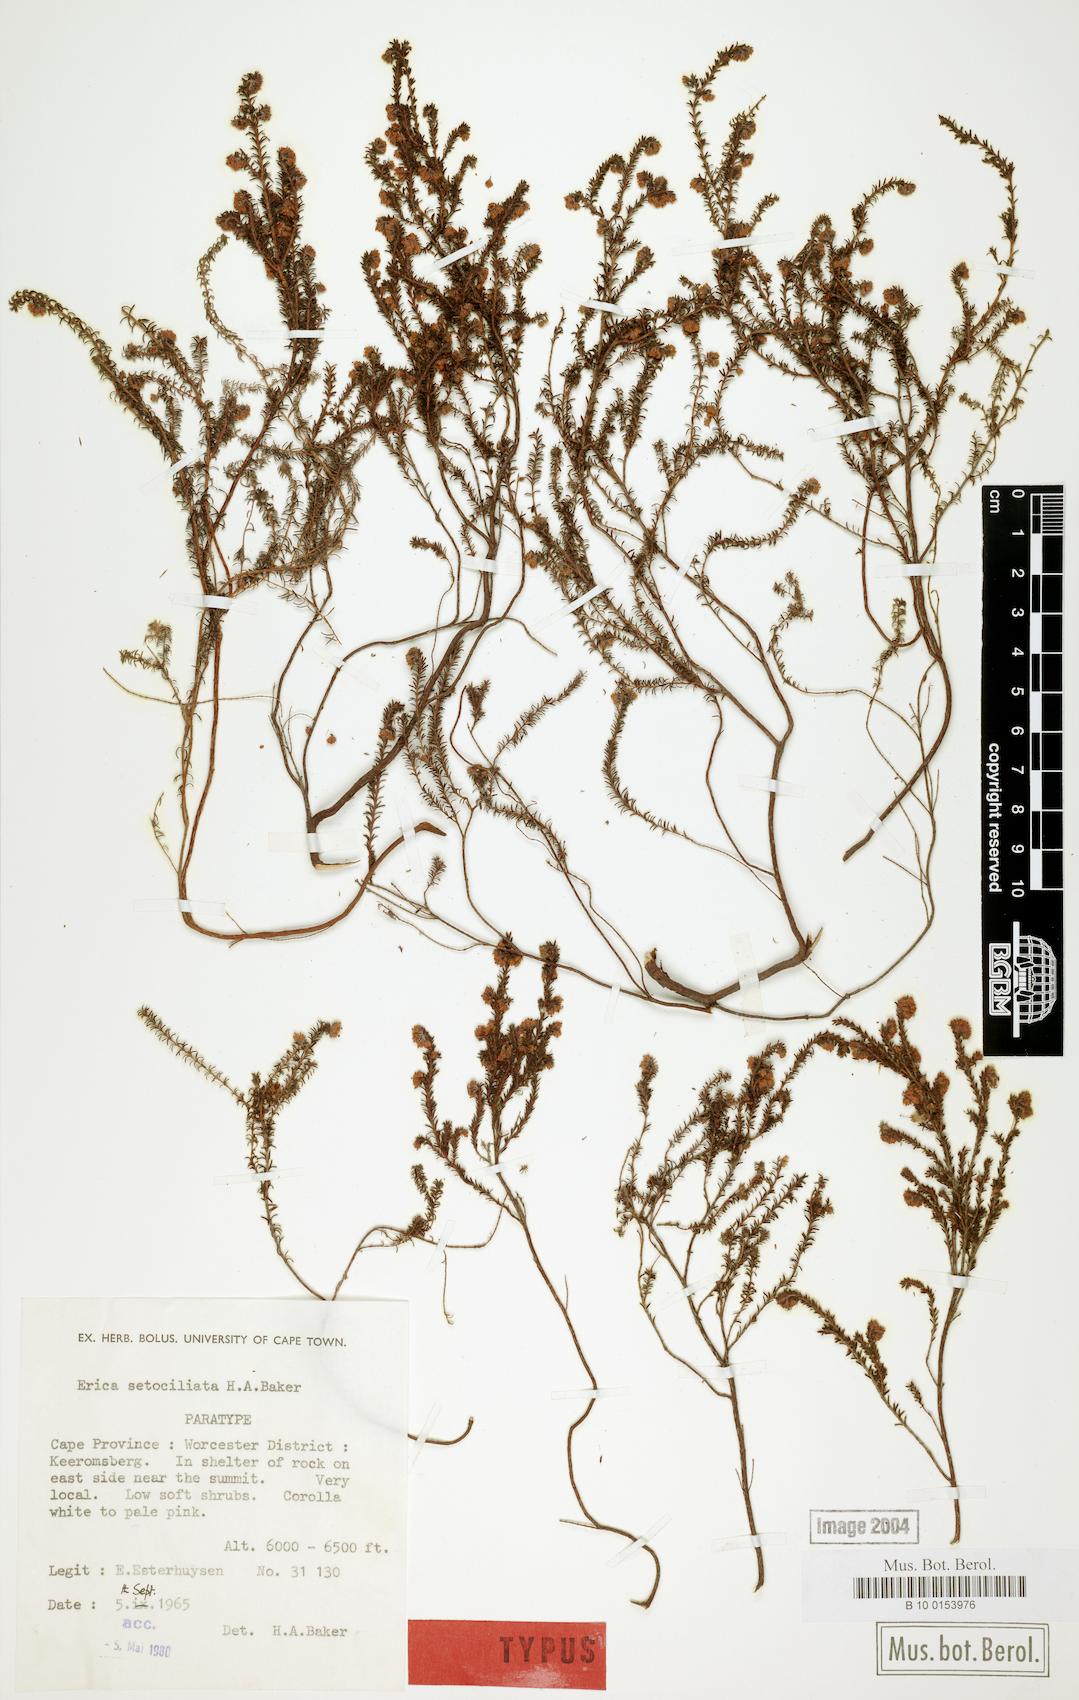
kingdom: Plantae
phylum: Tracheophyta
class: Magnoliopsida
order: Ericales
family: Ericaceae
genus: Erica
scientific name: Erica setociliata
